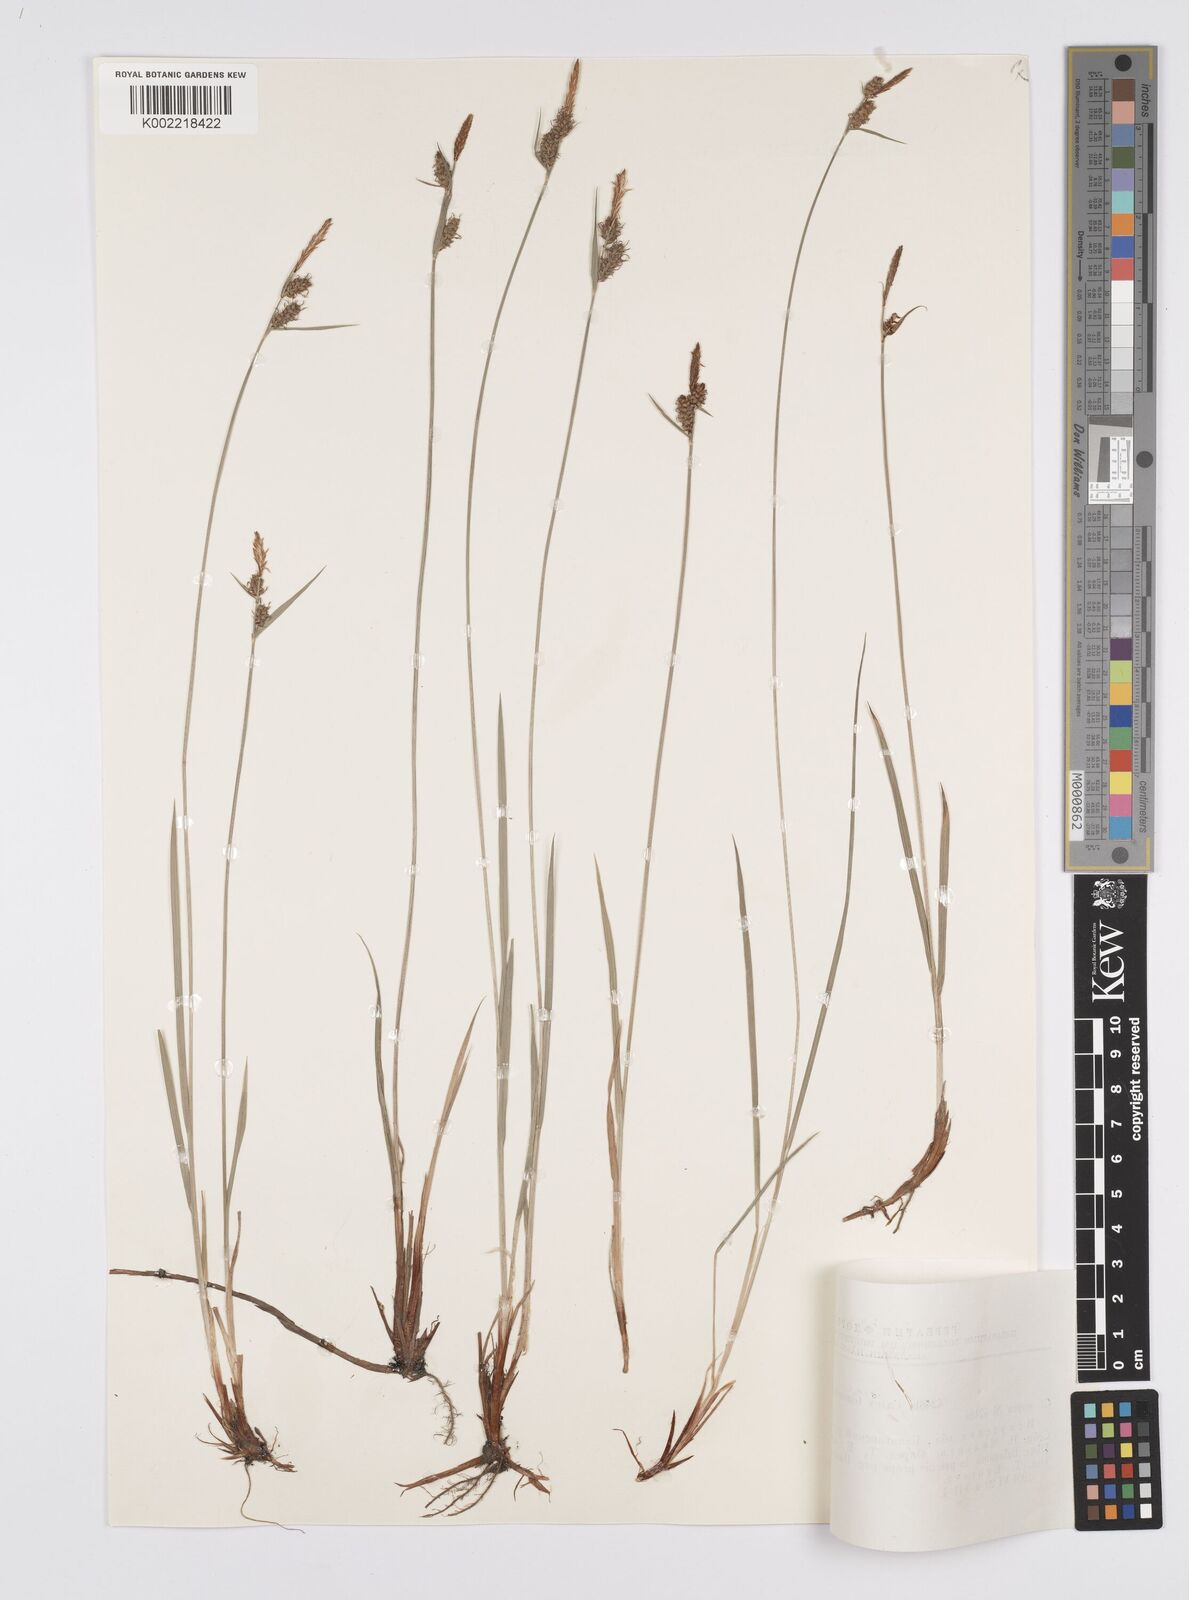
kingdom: Plantae
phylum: Tracheophyta
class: Liliopsida
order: Poales
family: Cyperaceae
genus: Carex
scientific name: Carex tomentosa
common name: Downy-fruited sedge
